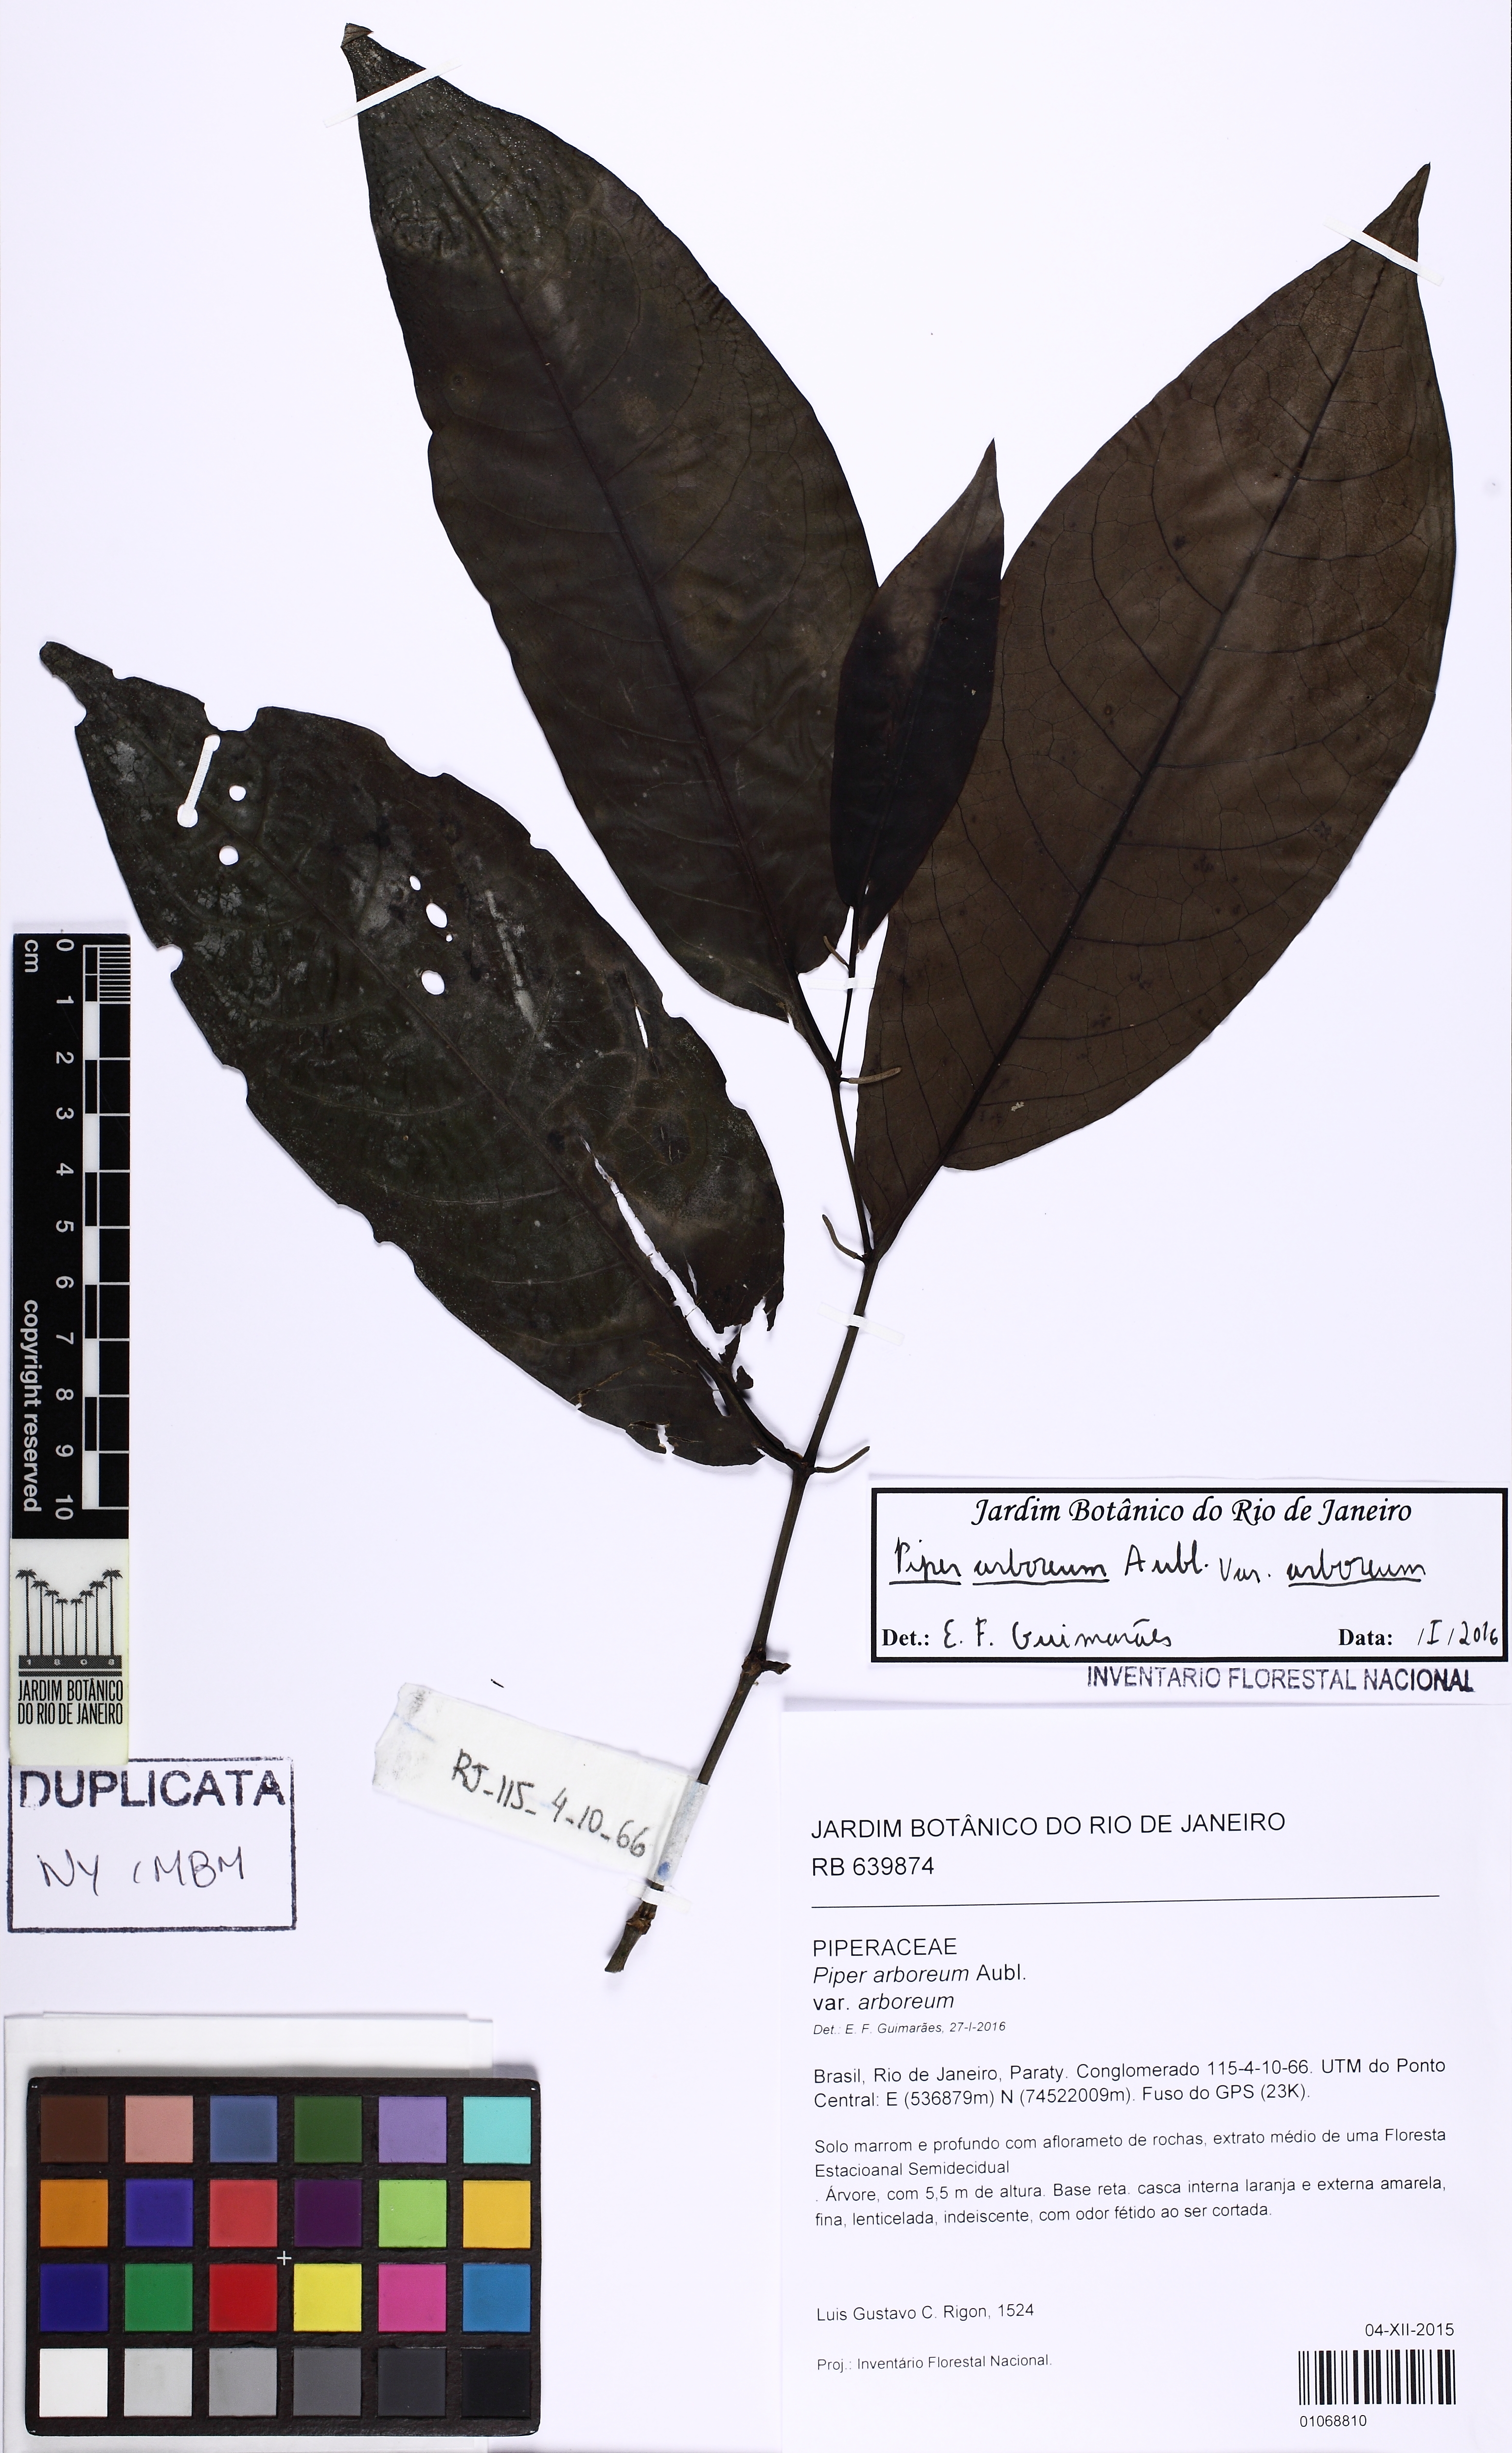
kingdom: Plantae
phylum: Tracheophyta
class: Magnoliopsida
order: Piperales
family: Piperaceae
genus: Piper
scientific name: Piper arboreum
